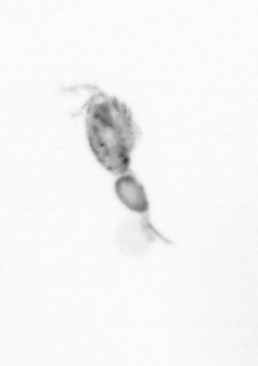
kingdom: Animalia
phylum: Arthropoda
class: Copepoda
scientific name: Copepoda
